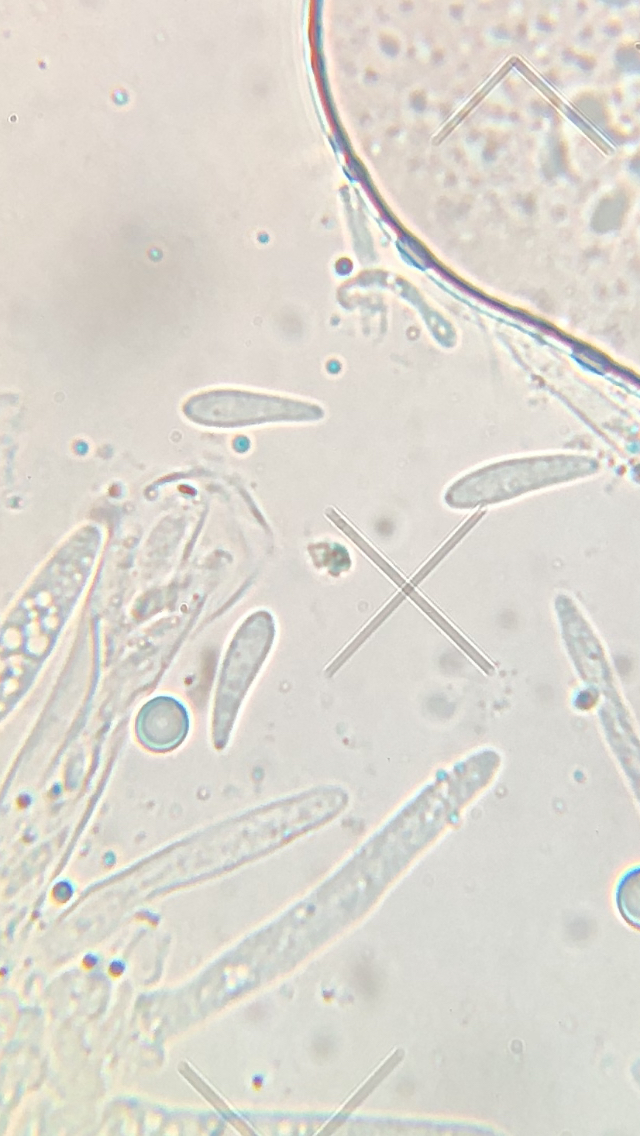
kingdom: Fungi
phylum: Ascomycota
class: Leotiomycetes
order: Helotiales
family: Mollisiaceae
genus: Mollisia
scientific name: Mollisia ligni
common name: ved-gråskive
